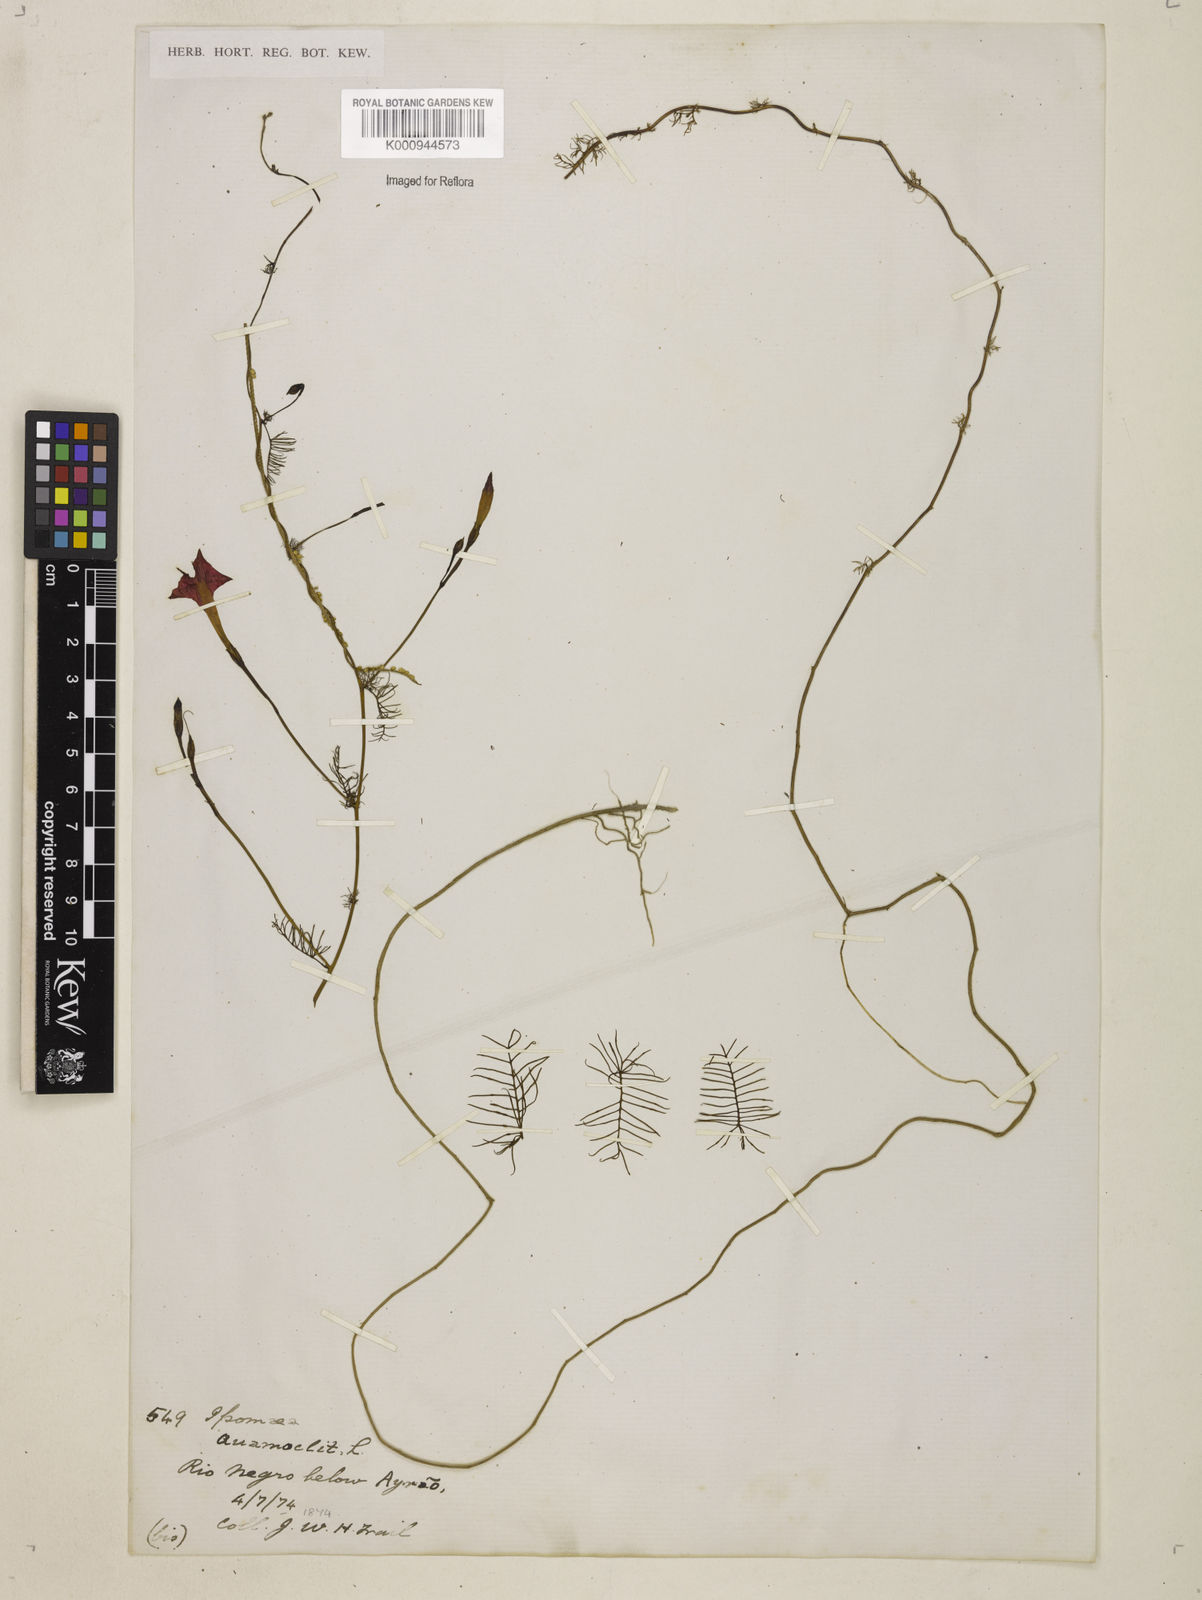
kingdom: Plantae
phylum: Tracheophyta
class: Magnoliopsida
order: Solanales
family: Convolvulaceae
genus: Ipomoea
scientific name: Ipomoea quamoclit
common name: Cypress vine
